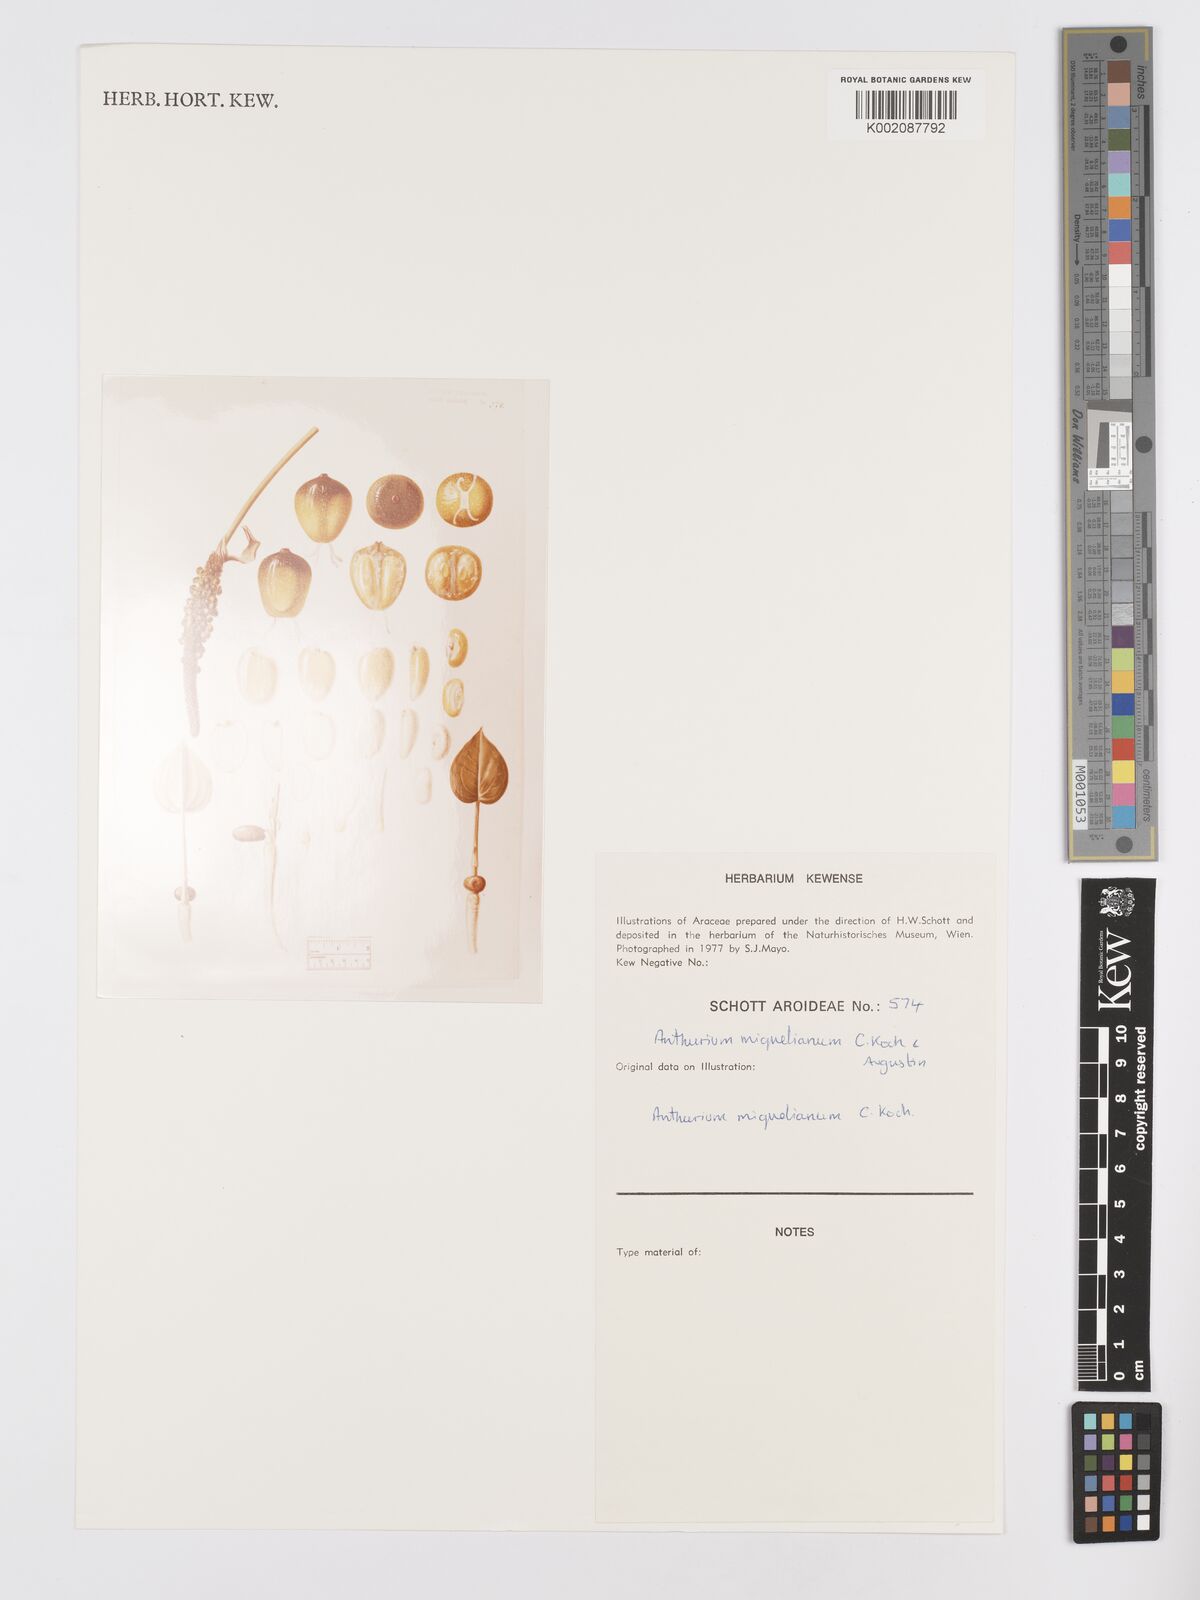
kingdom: Plantae
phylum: Tracheophyta
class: Liliopsida
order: Alismatales
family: Araceae
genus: Anthurium
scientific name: Anthurium parasiticum
